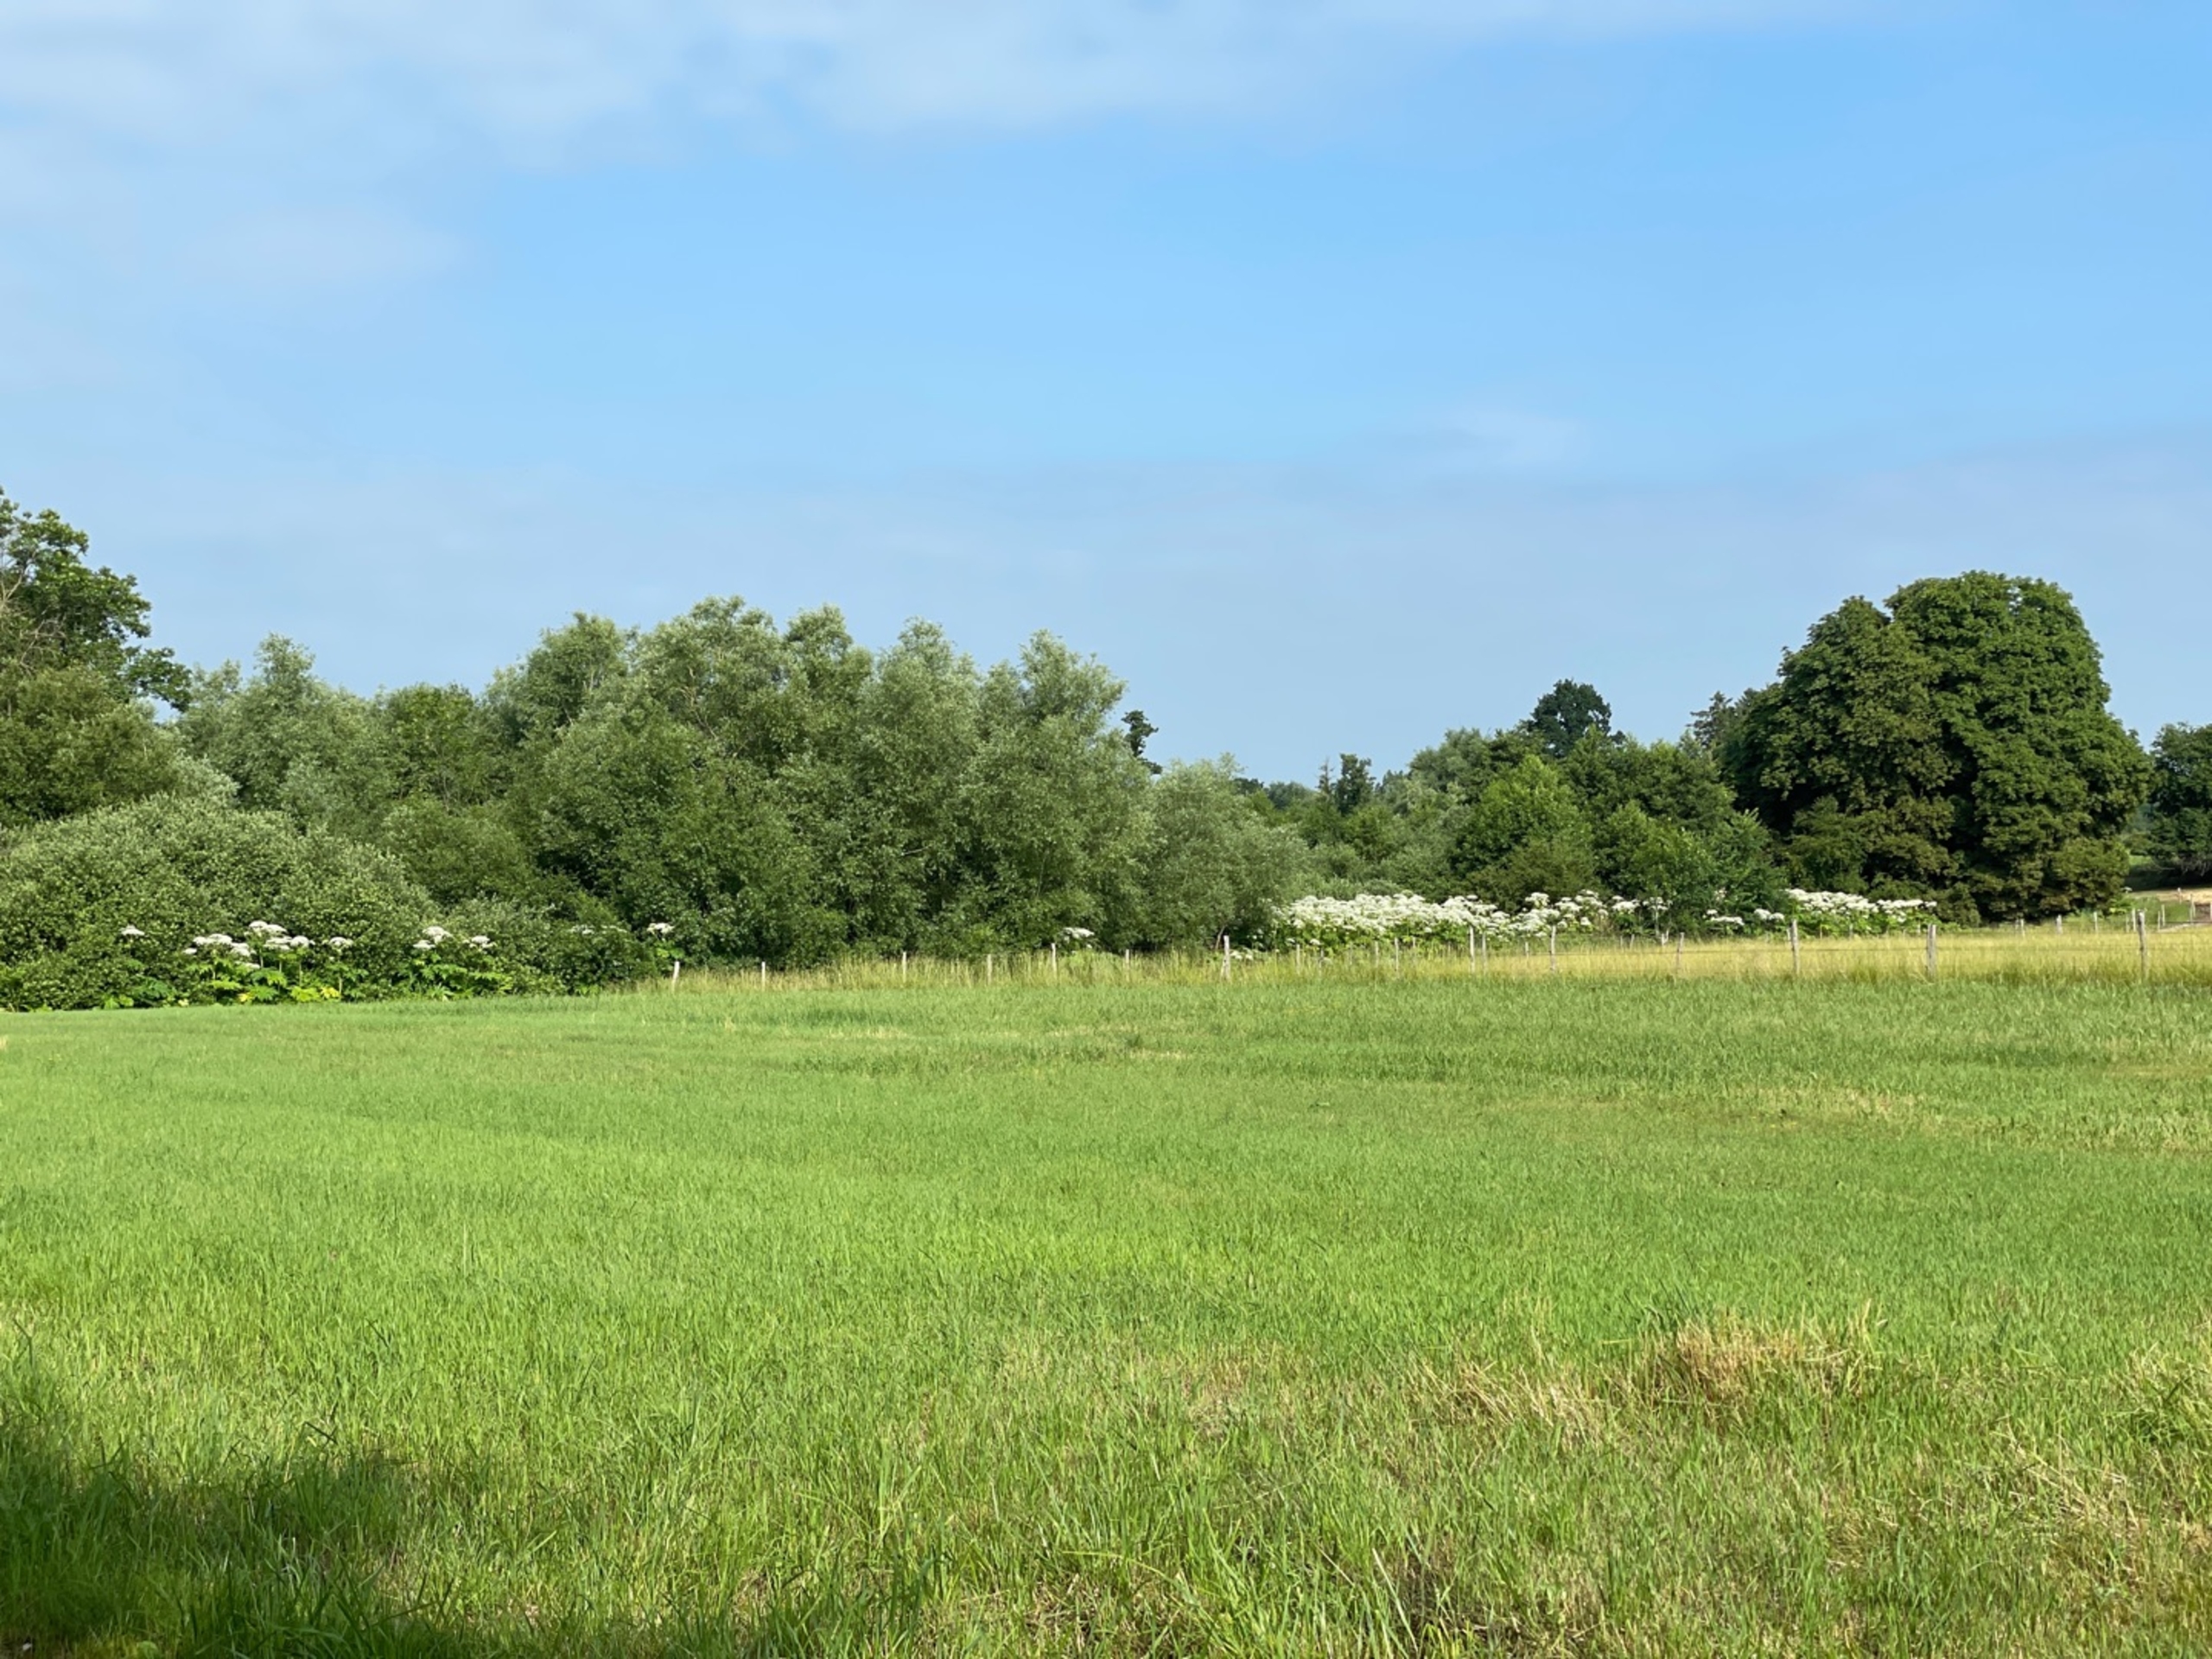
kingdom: Plantae
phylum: Tracheophyta
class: Magnoliopsida
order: Apiales
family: Apiaceae
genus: Heracleum
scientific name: Heracleum mantegazzianum
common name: Kæmpe-bjørneklo
